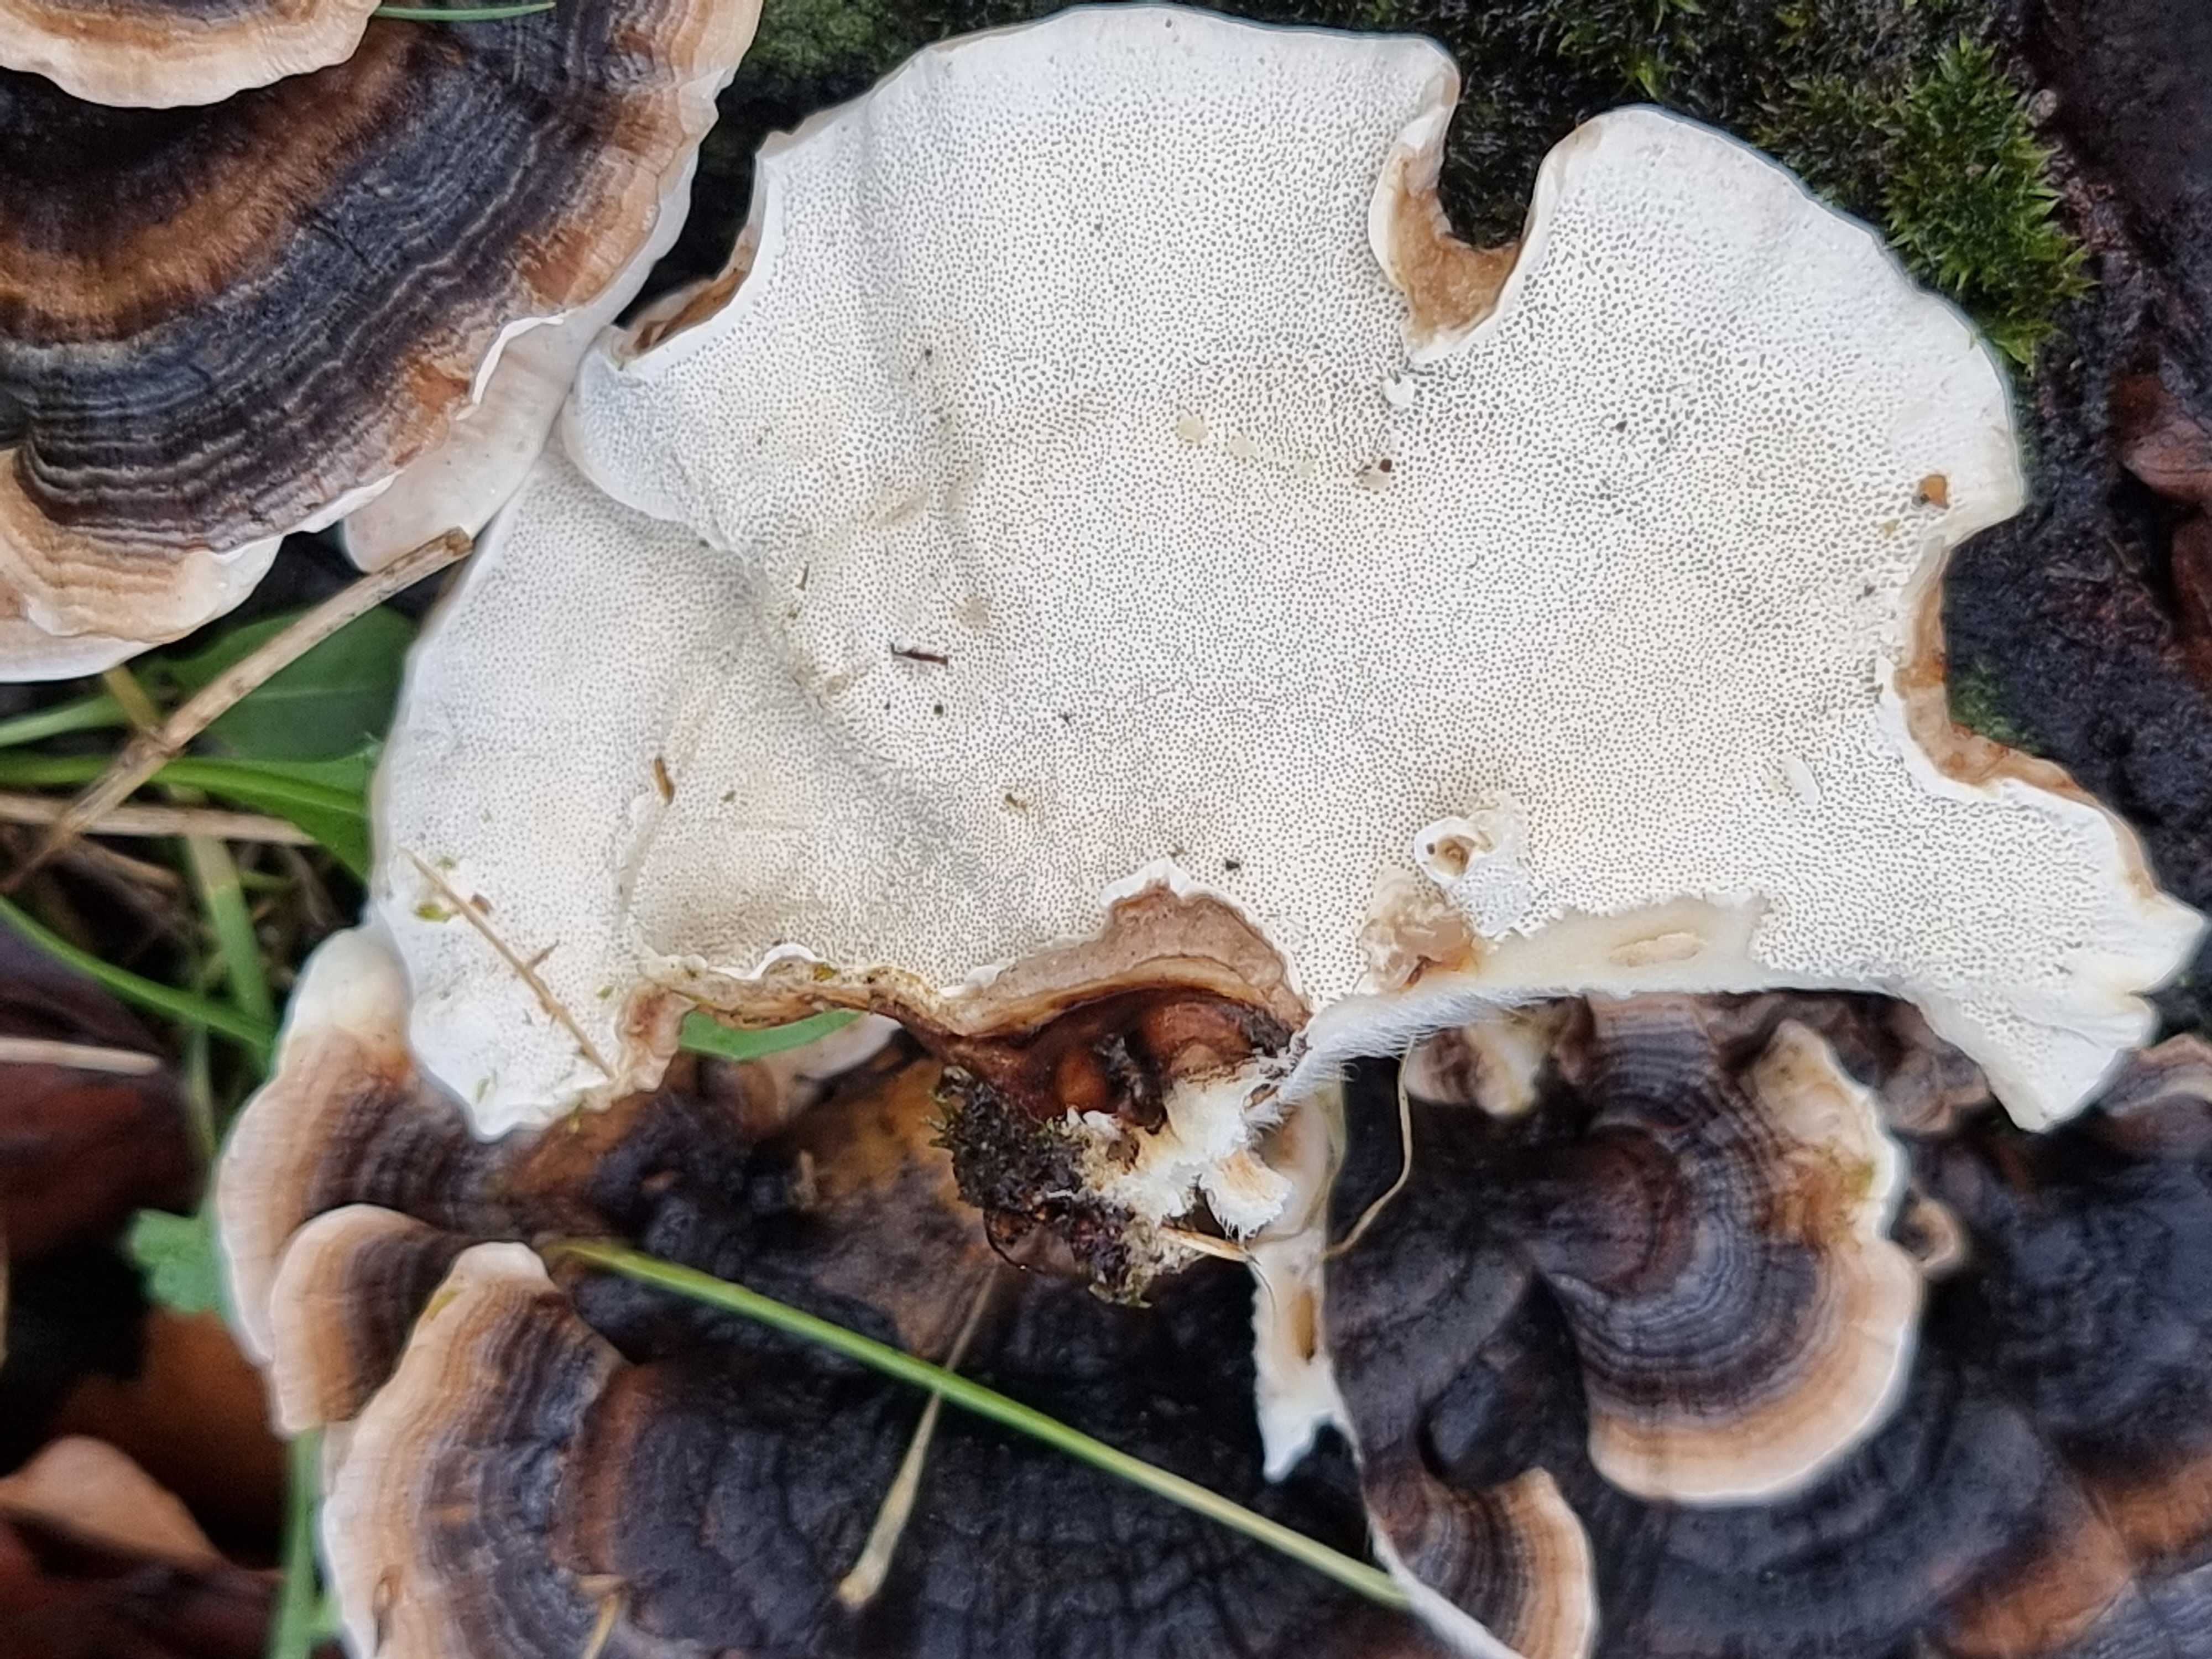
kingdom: Fungi
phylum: Basidiomycota
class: Agaricomycetes
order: Polyporales
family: Polyporaceae
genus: Trametes
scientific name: Trametes versicolor
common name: broget læderporesvamp
